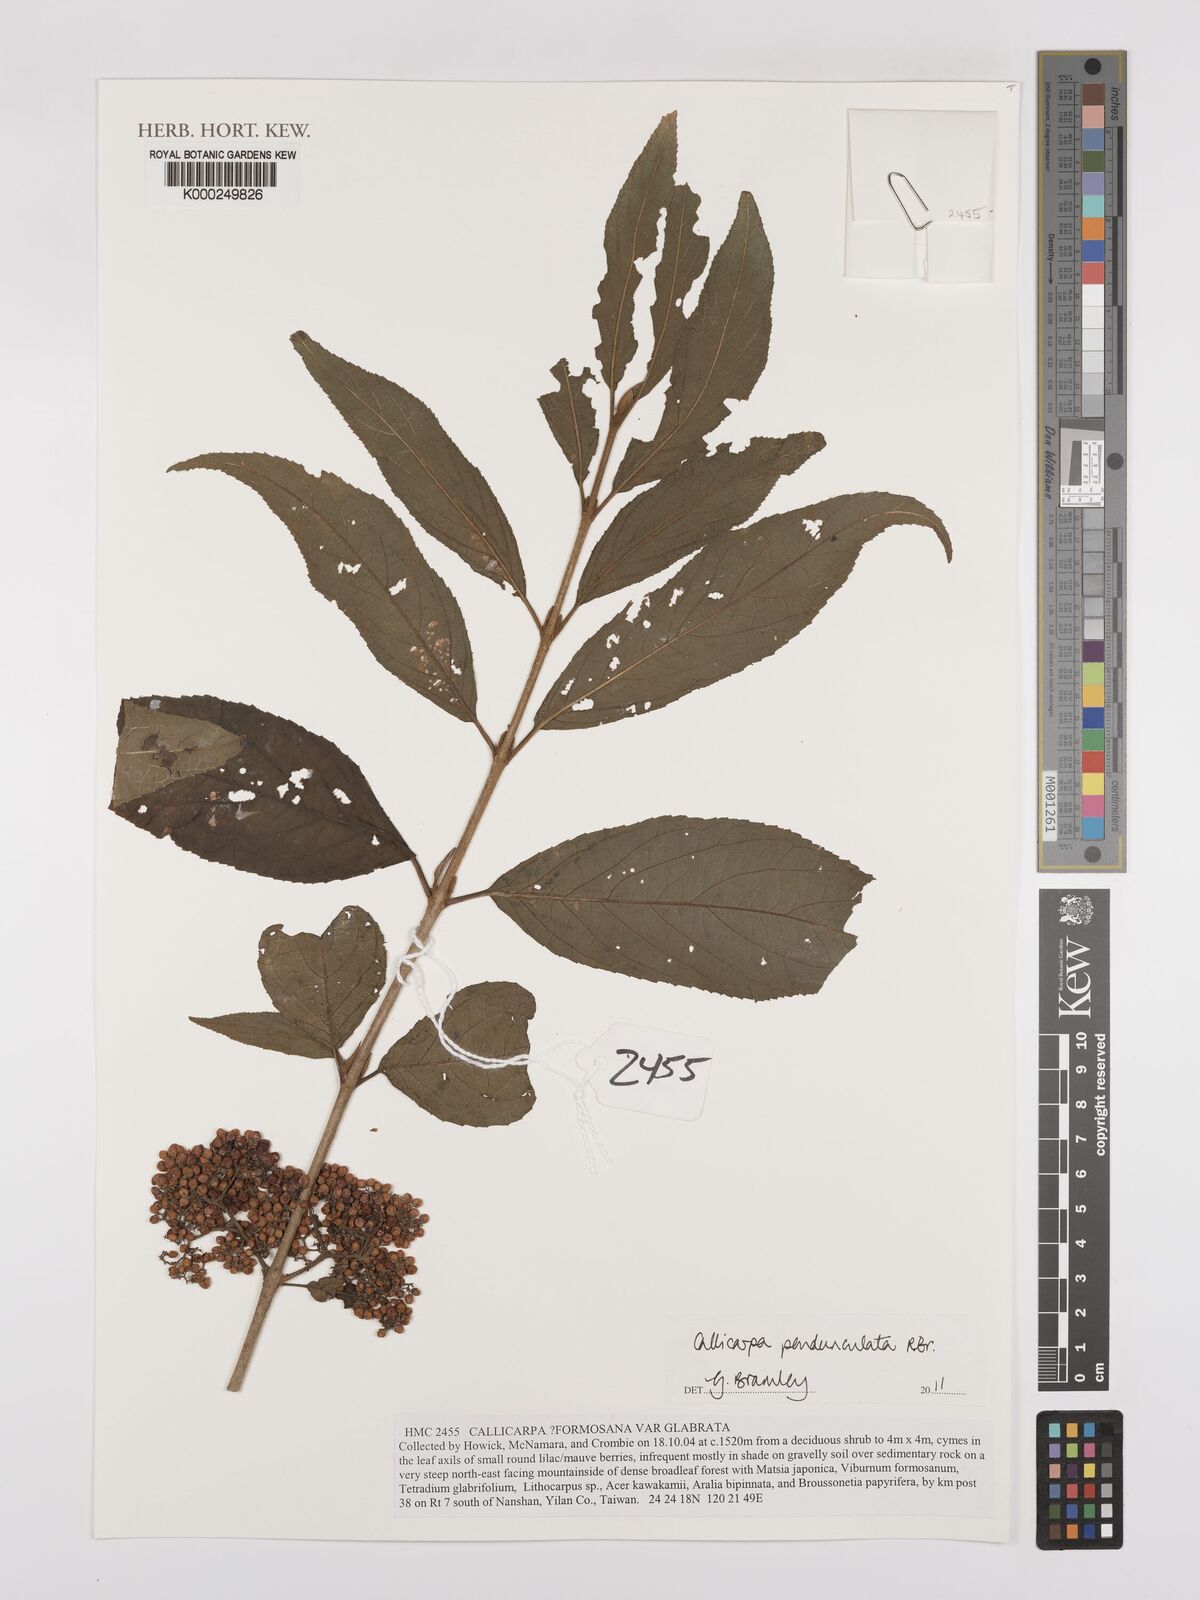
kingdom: Plantae
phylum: Tracheophyta
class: Magnoliopsida
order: Lamiales
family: Lamiaceae
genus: Callicarpa
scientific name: Callicarpa pedunculata
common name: Velvetleaf
